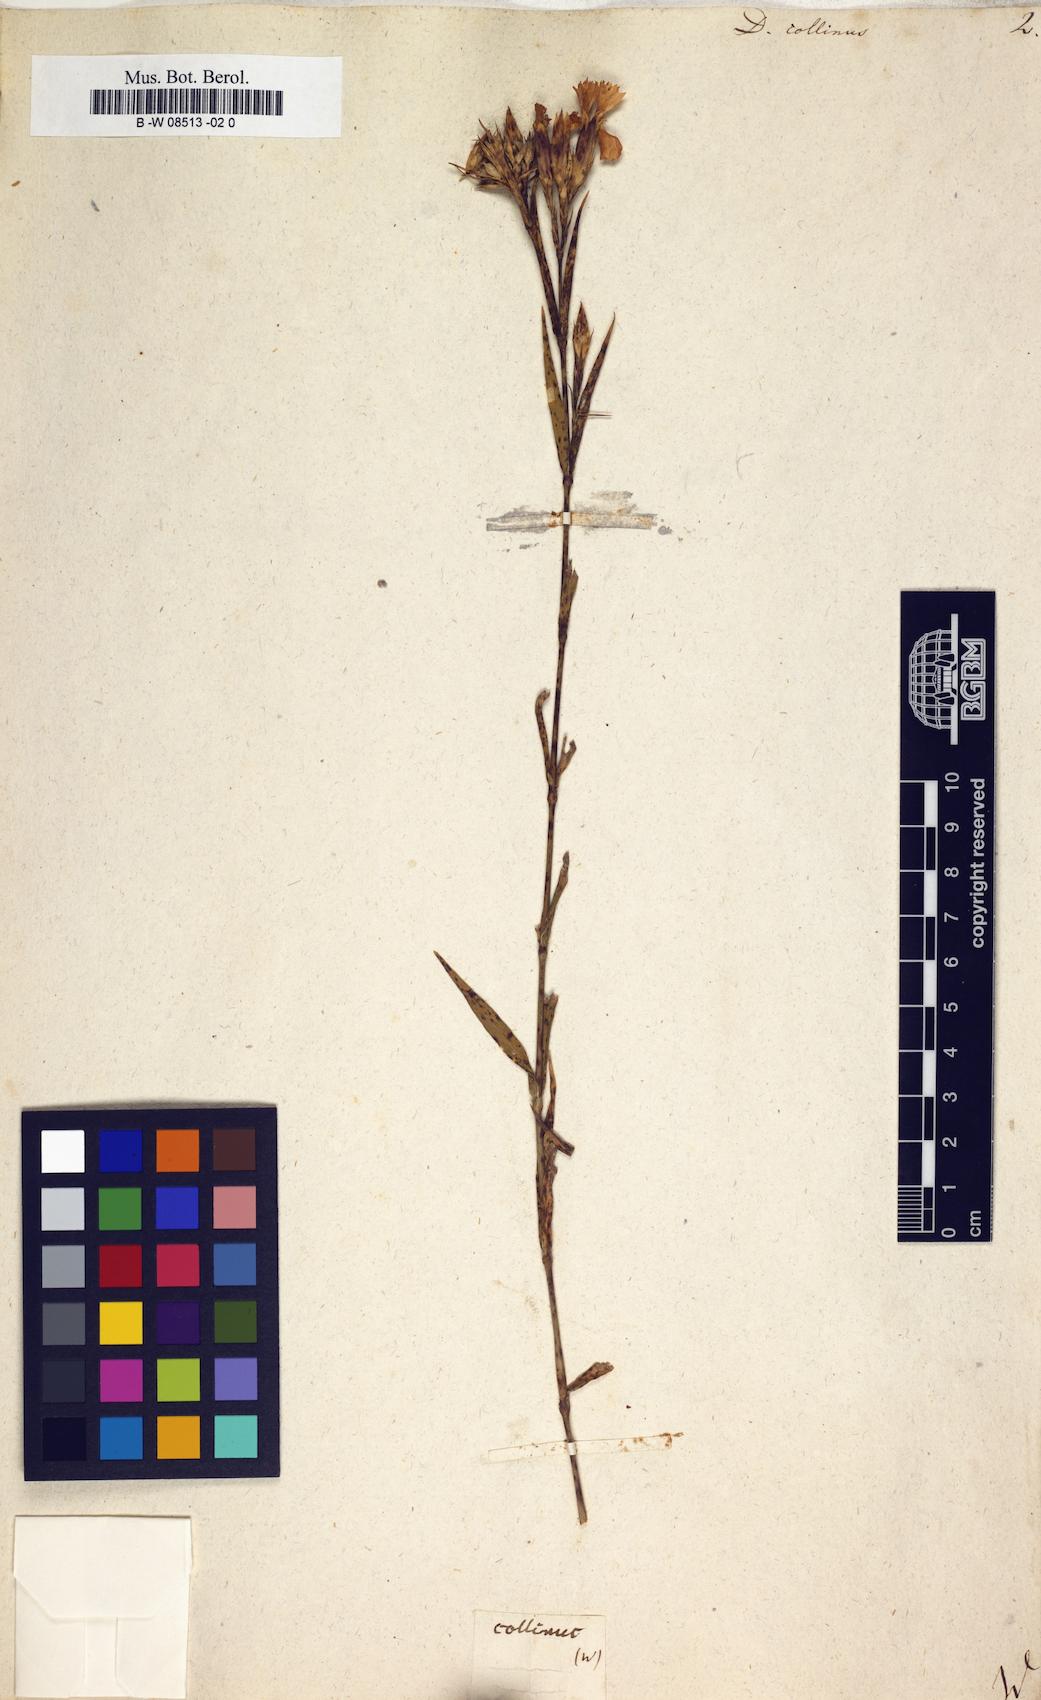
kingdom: Plantae
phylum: Tracheophyta
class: Magnoliopsida
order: Caryophyllales
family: Caryophyllaceae
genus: Dianthus
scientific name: Dianthus collinus
